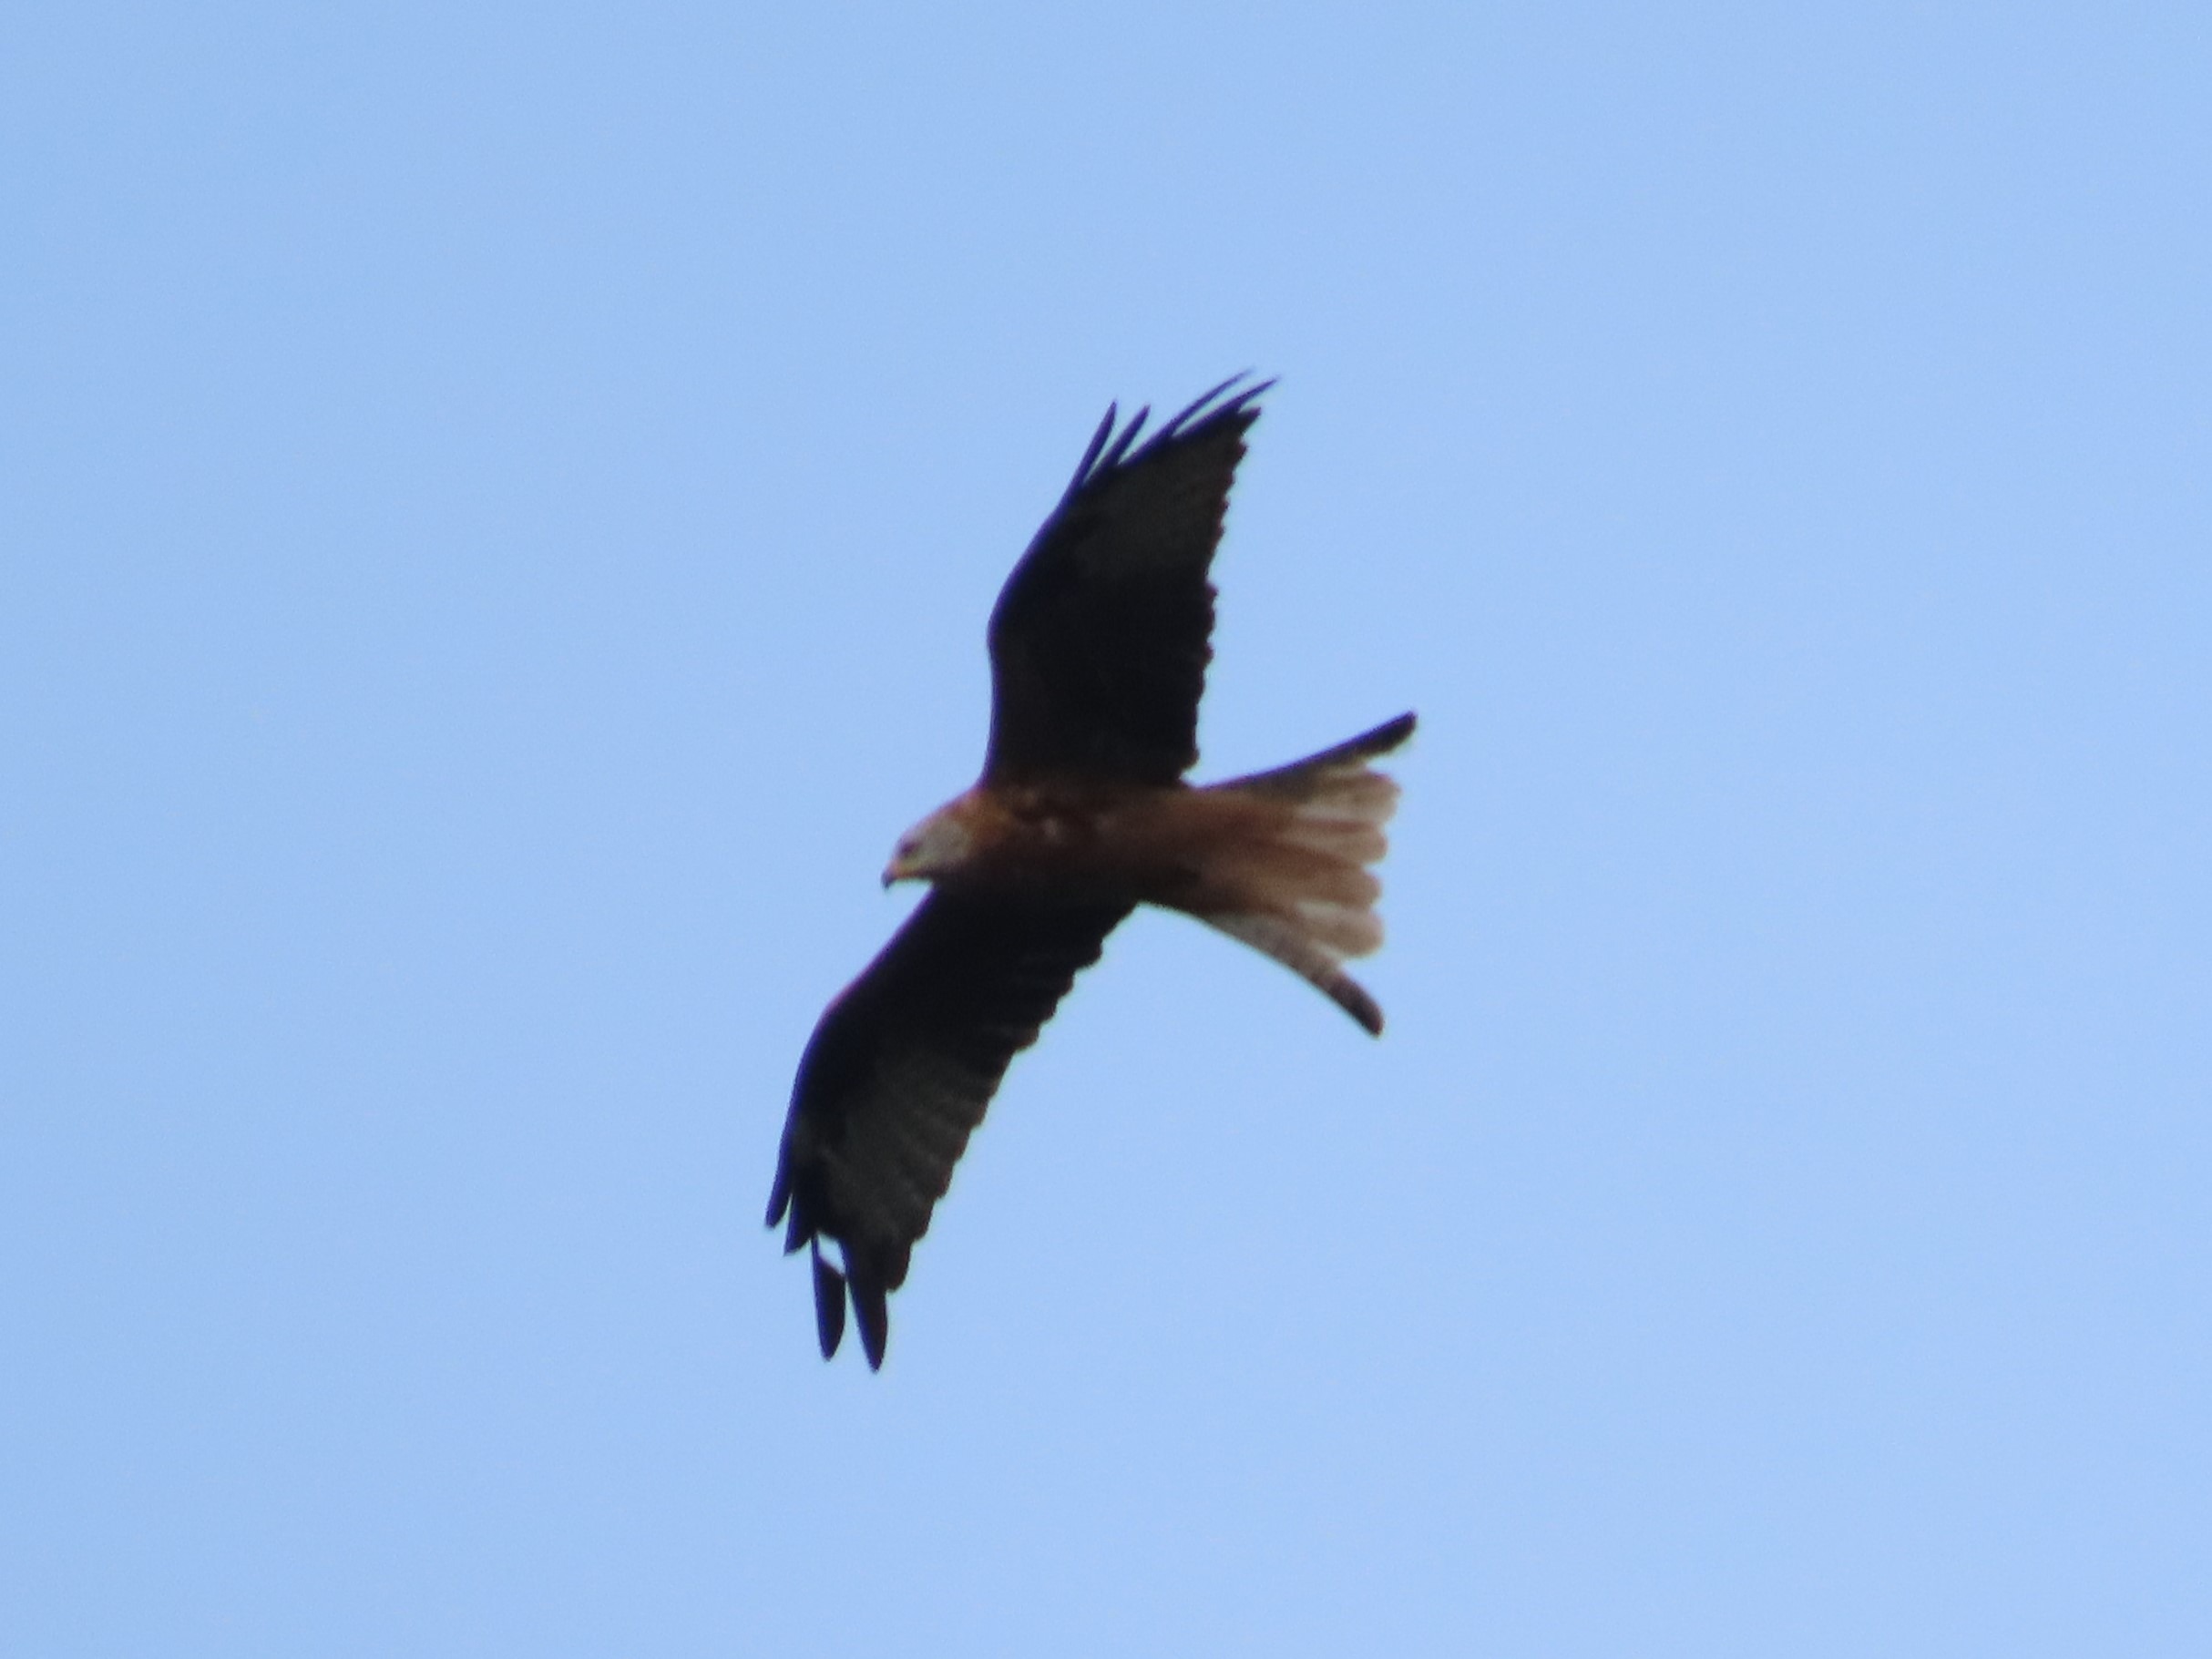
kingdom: Animalia
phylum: Chordata
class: Aves
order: Accipitriformes
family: Accipitridae
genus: Milvus
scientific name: Milvus milvus
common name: Rød glente
